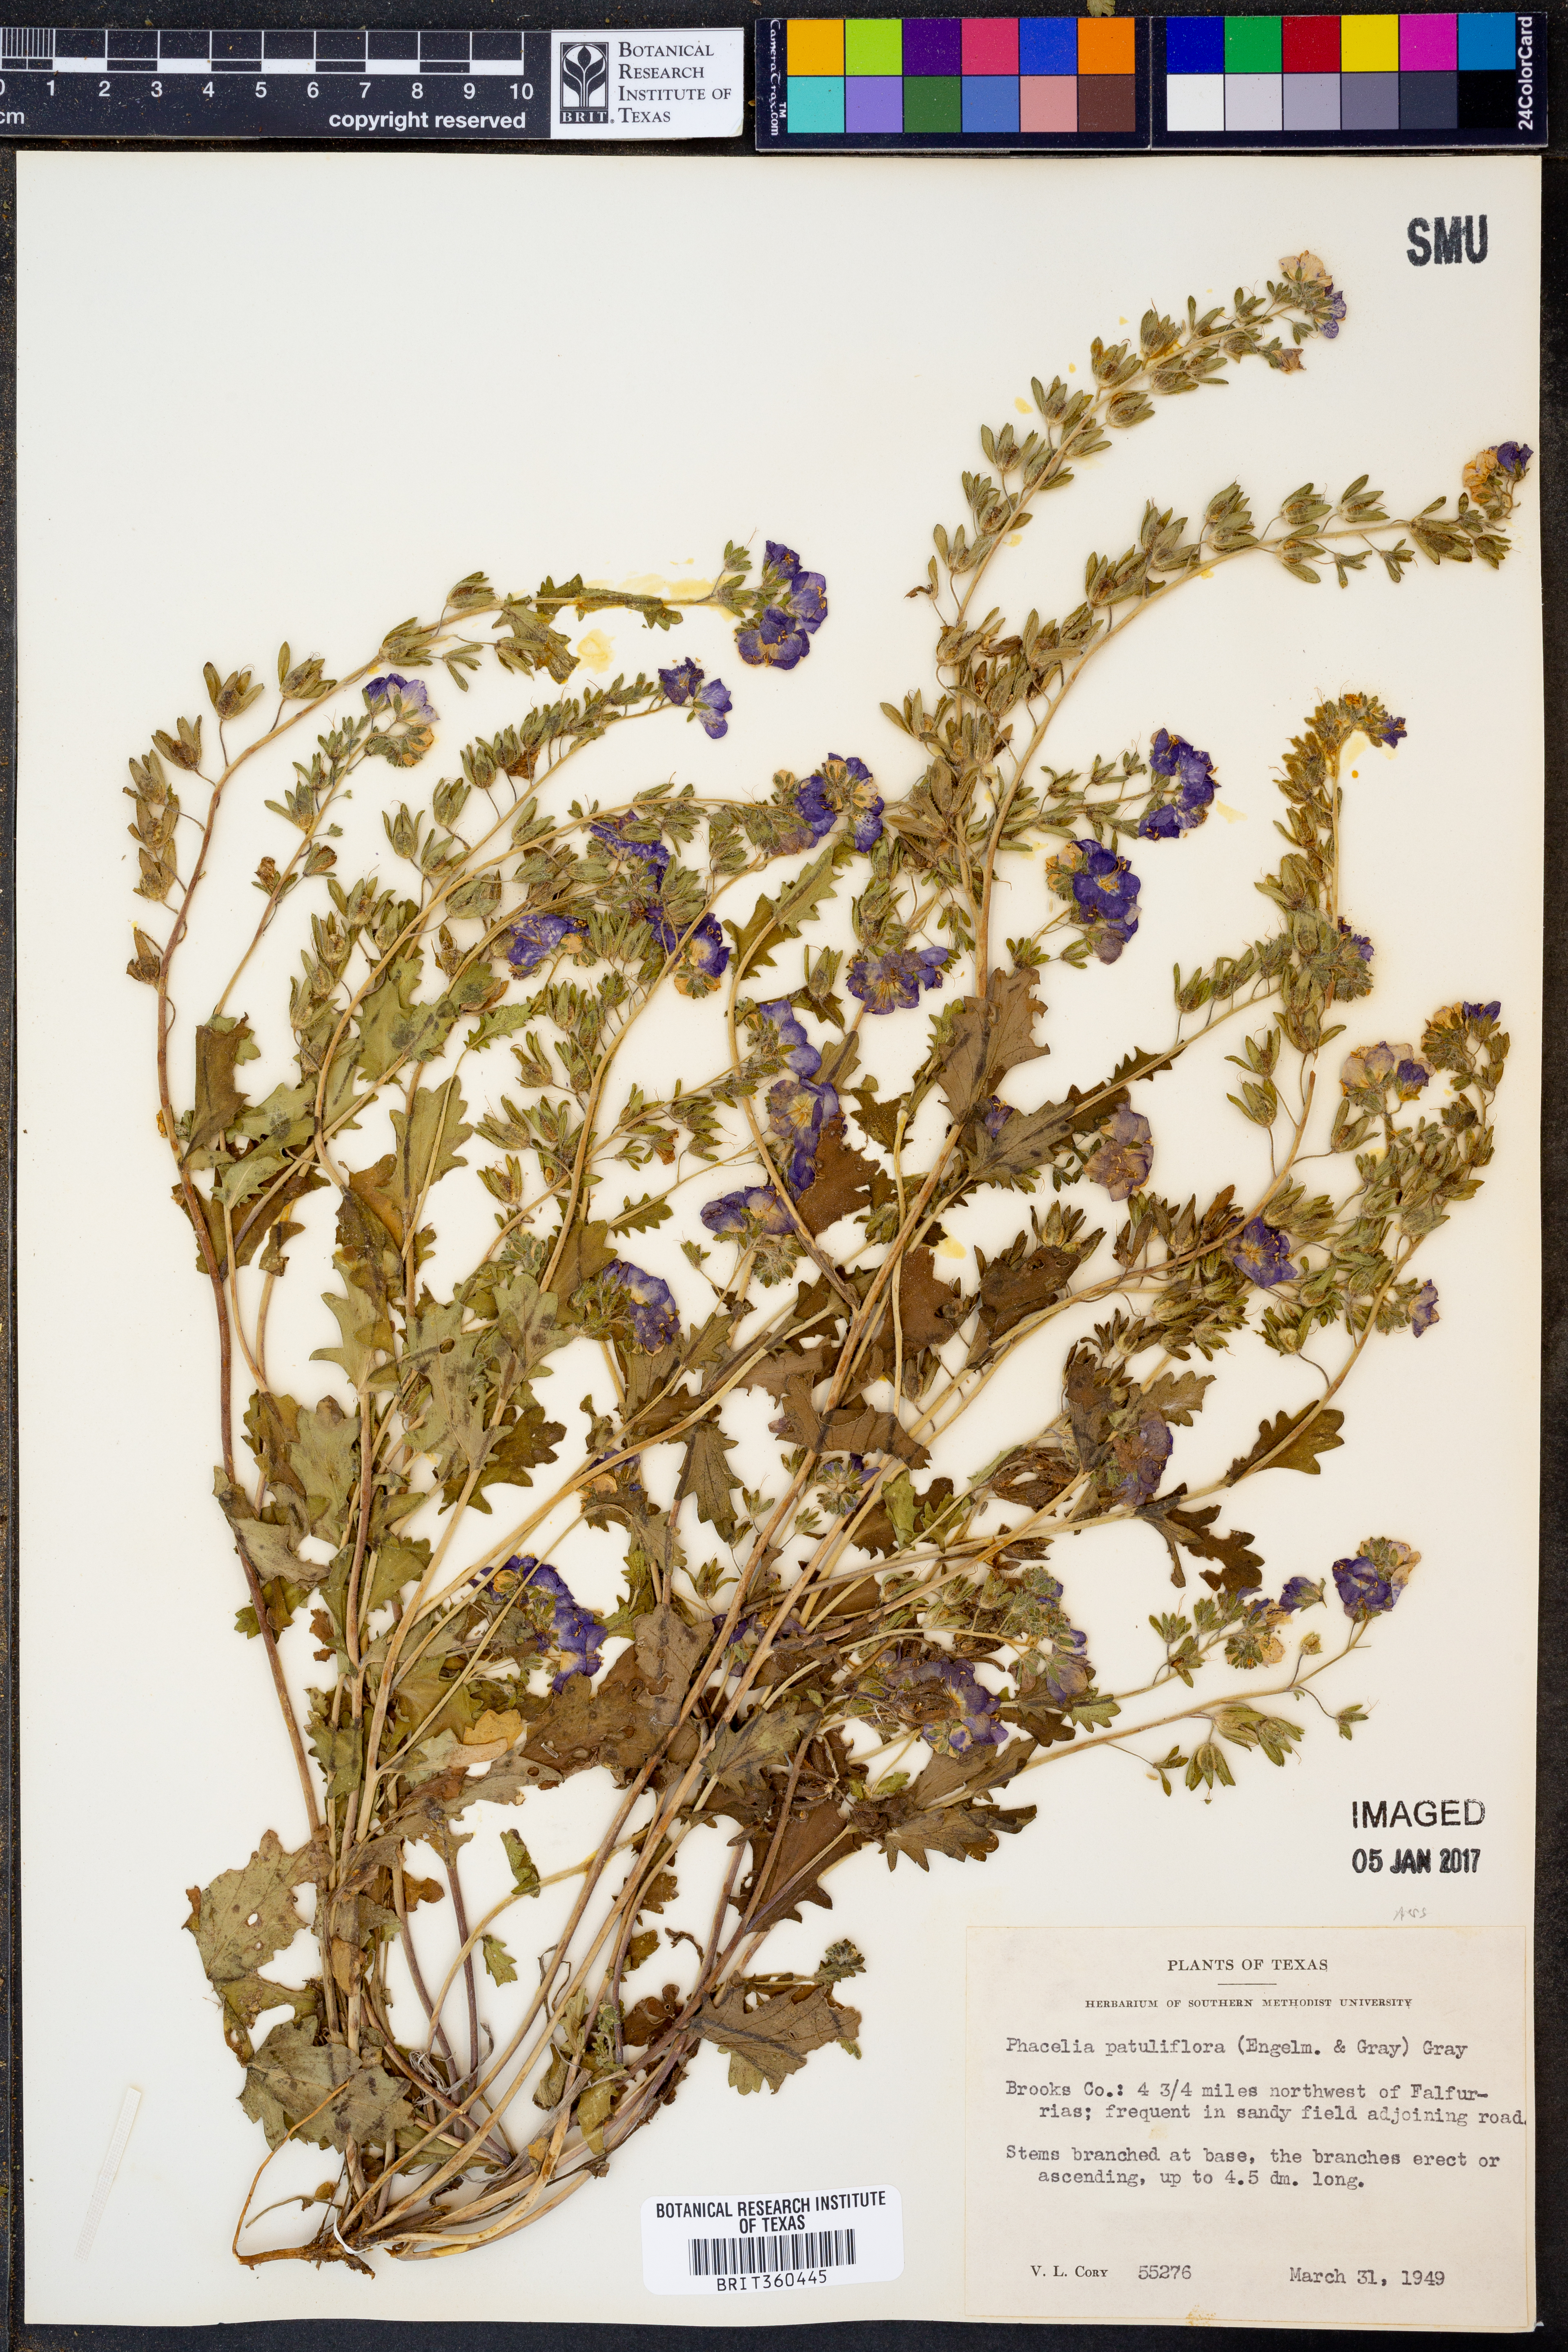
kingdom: Plantae
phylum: Tracheophyta
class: Magnoliopsida
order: Boraginales
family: Hydrophyllaceae
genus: Phacelia
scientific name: Phacelia patuliflora
